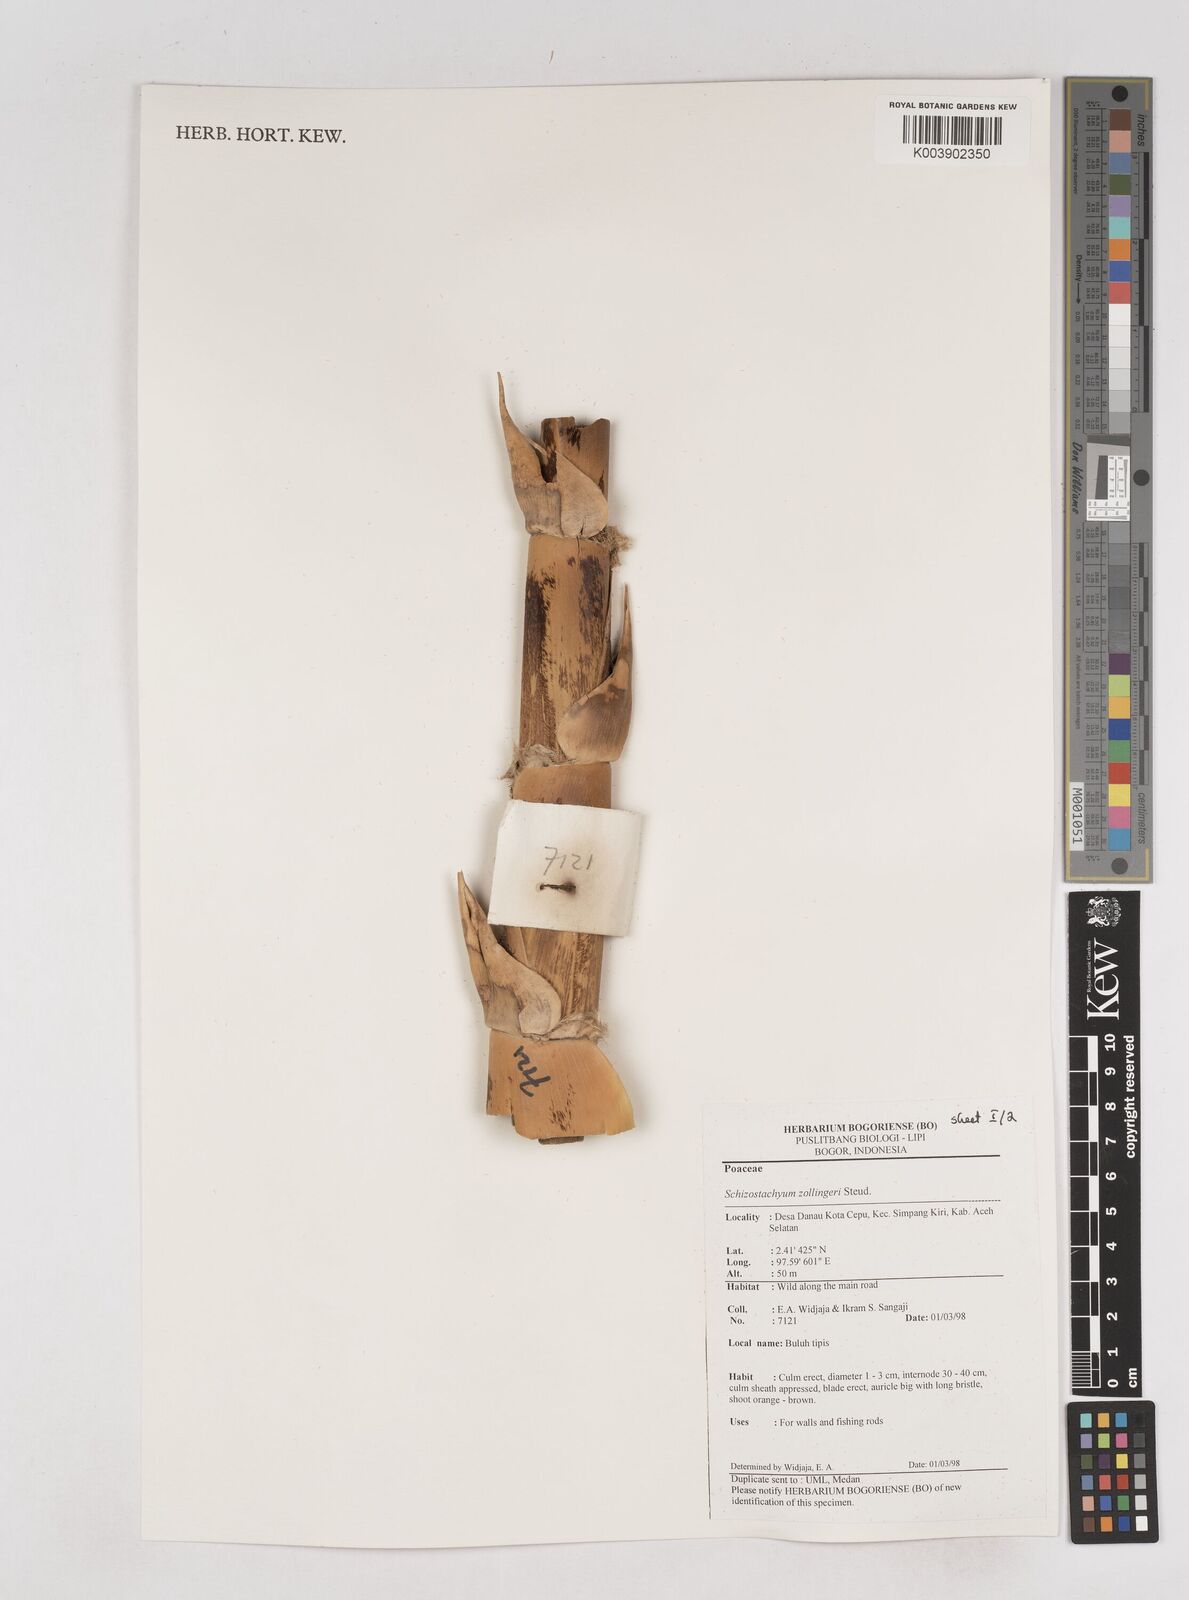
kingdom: Plantae
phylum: Tracheophyta
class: Liliopsida
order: Poales
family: Poaceae
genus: Schizostachyum
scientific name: Schizostachyum zollingeri
